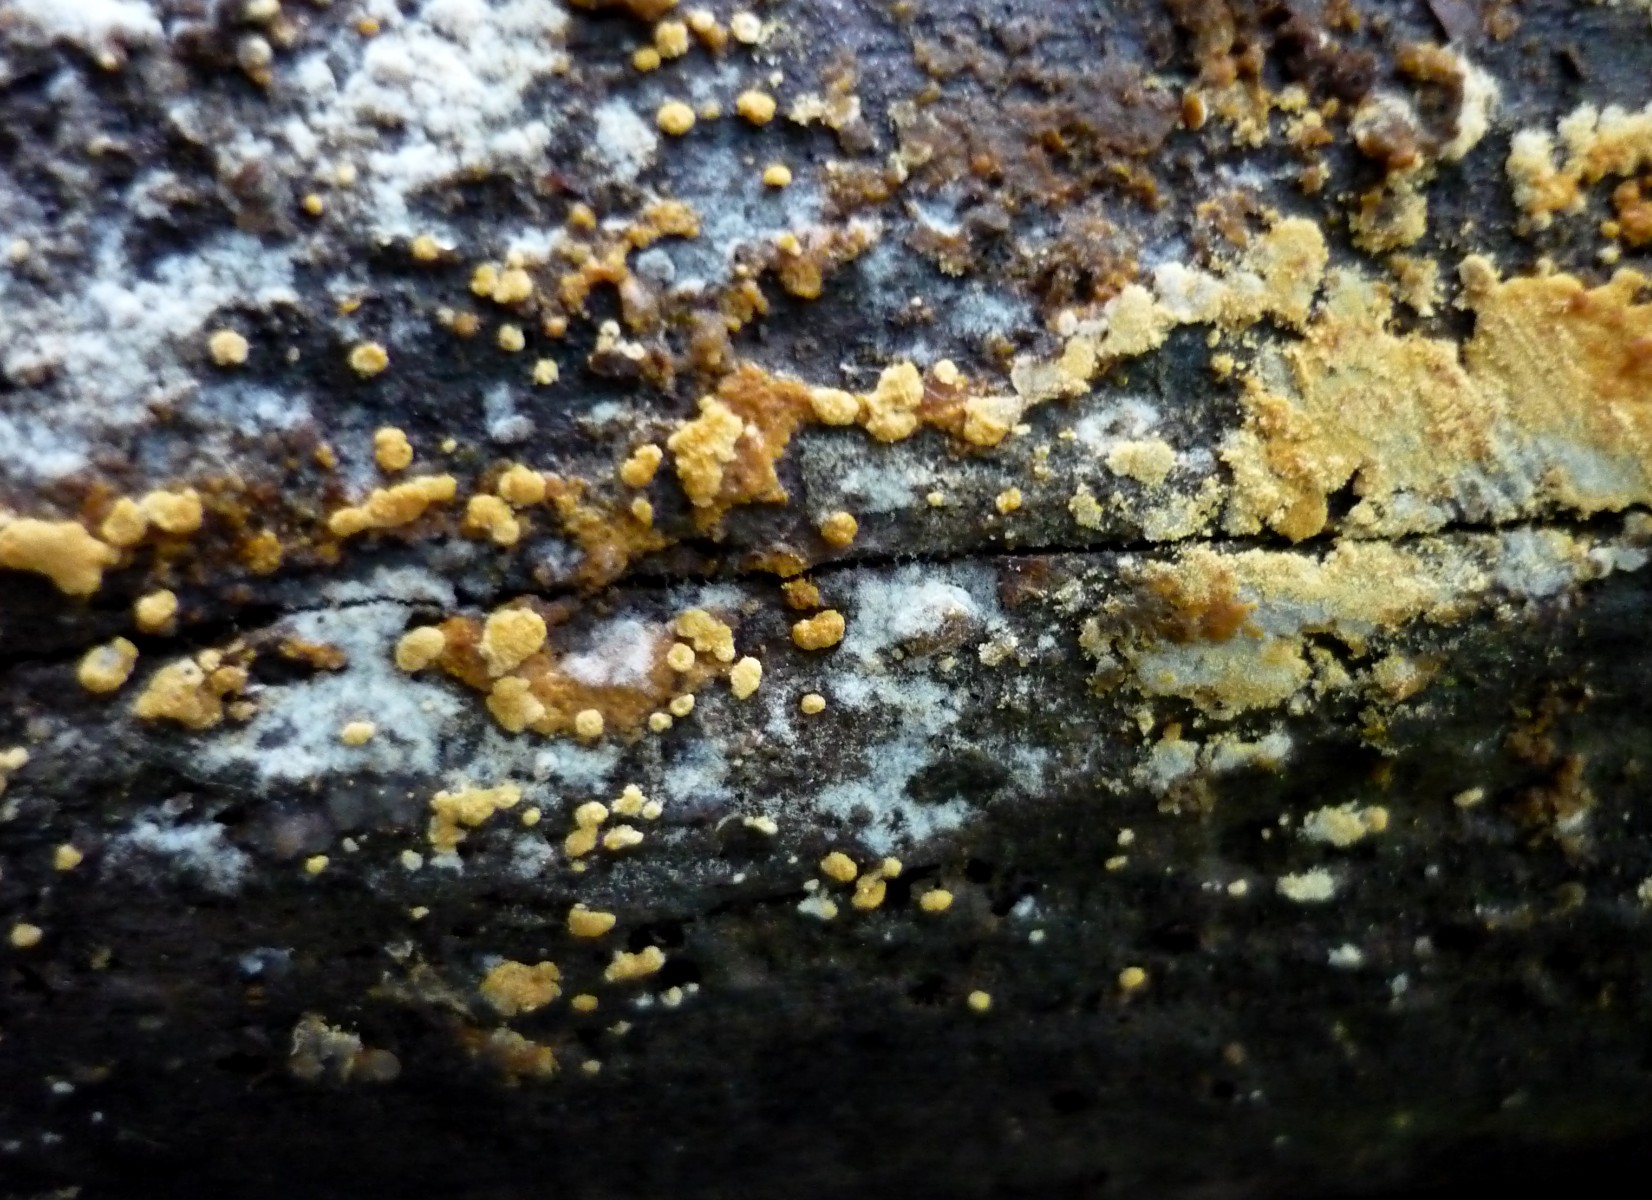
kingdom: Fungi
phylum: Basidiomycota
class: Agaricomycetes
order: Cantharellales
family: Botryobasidiaceae
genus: Botryobasidium
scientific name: Botryobasidium aureum
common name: gylden spindhinde
